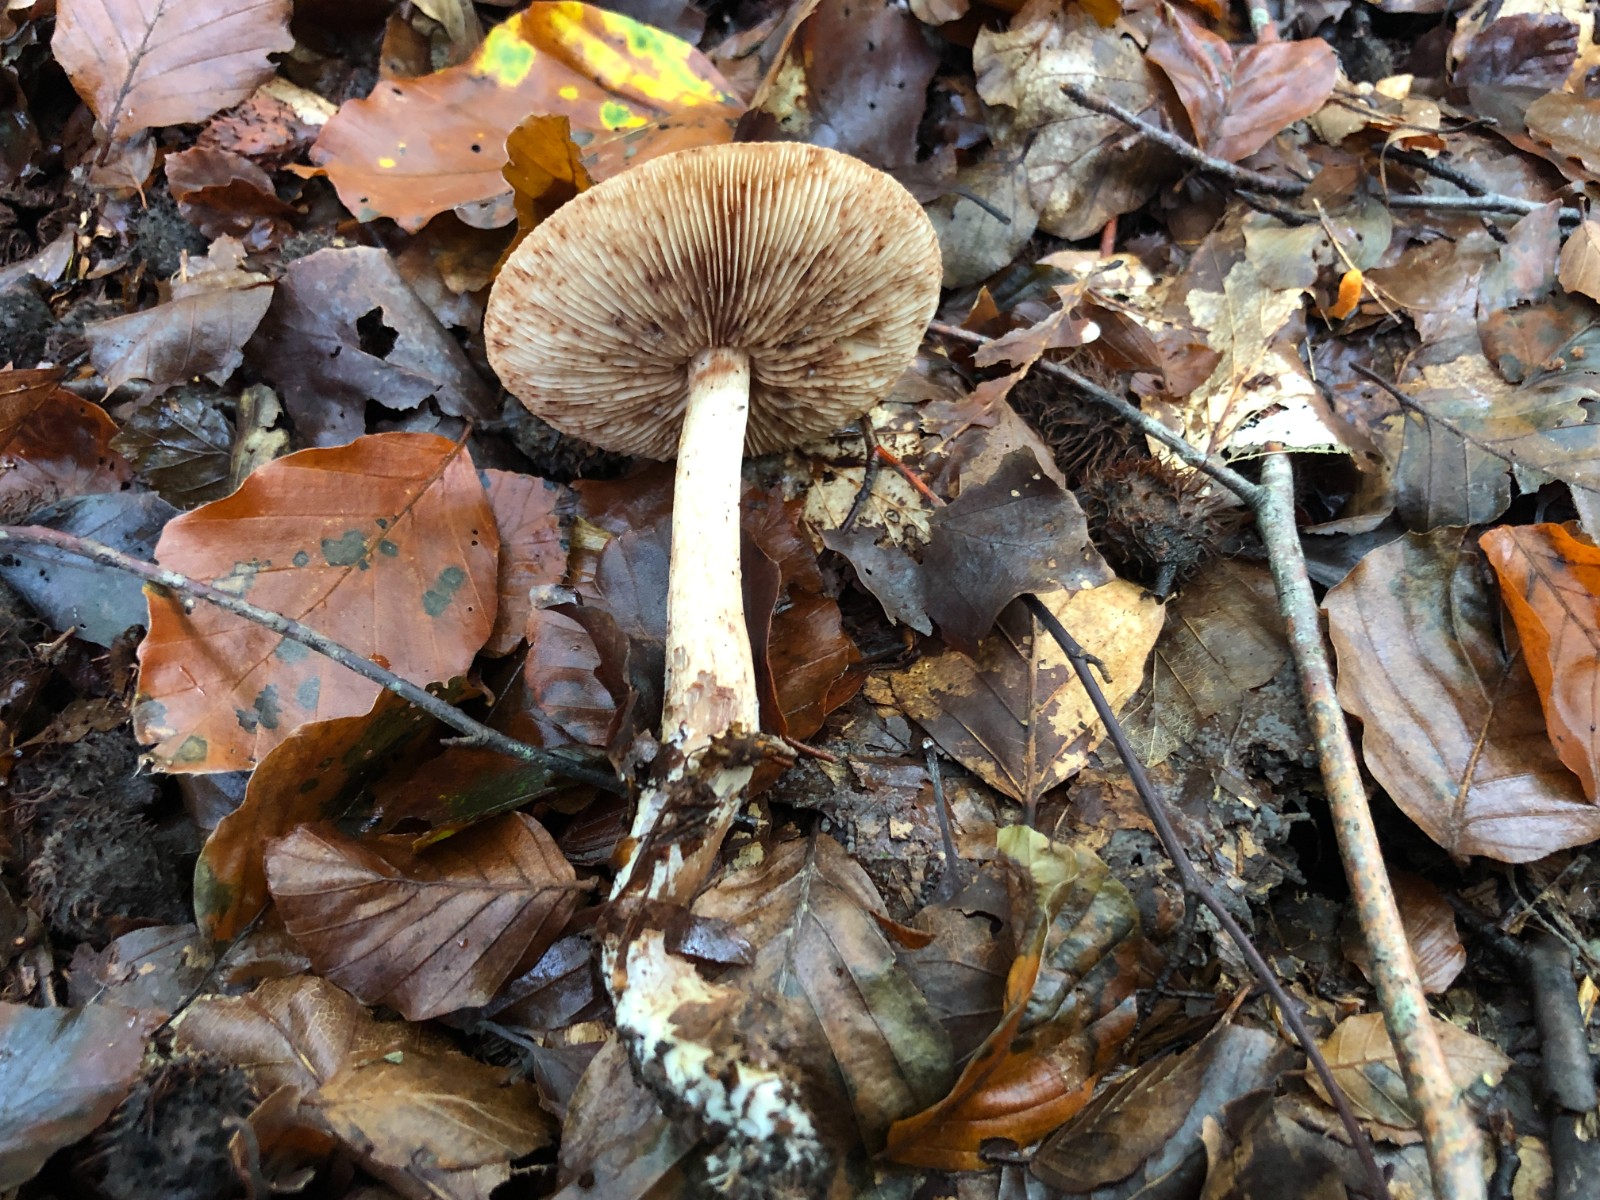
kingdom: Fungi
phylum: Basidiomycota
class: Agaricomycetes
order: Agaricales
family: Tricholomataceae
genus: Tricholoma
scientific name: Tricholoma ustale
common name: sveden ridderhat
